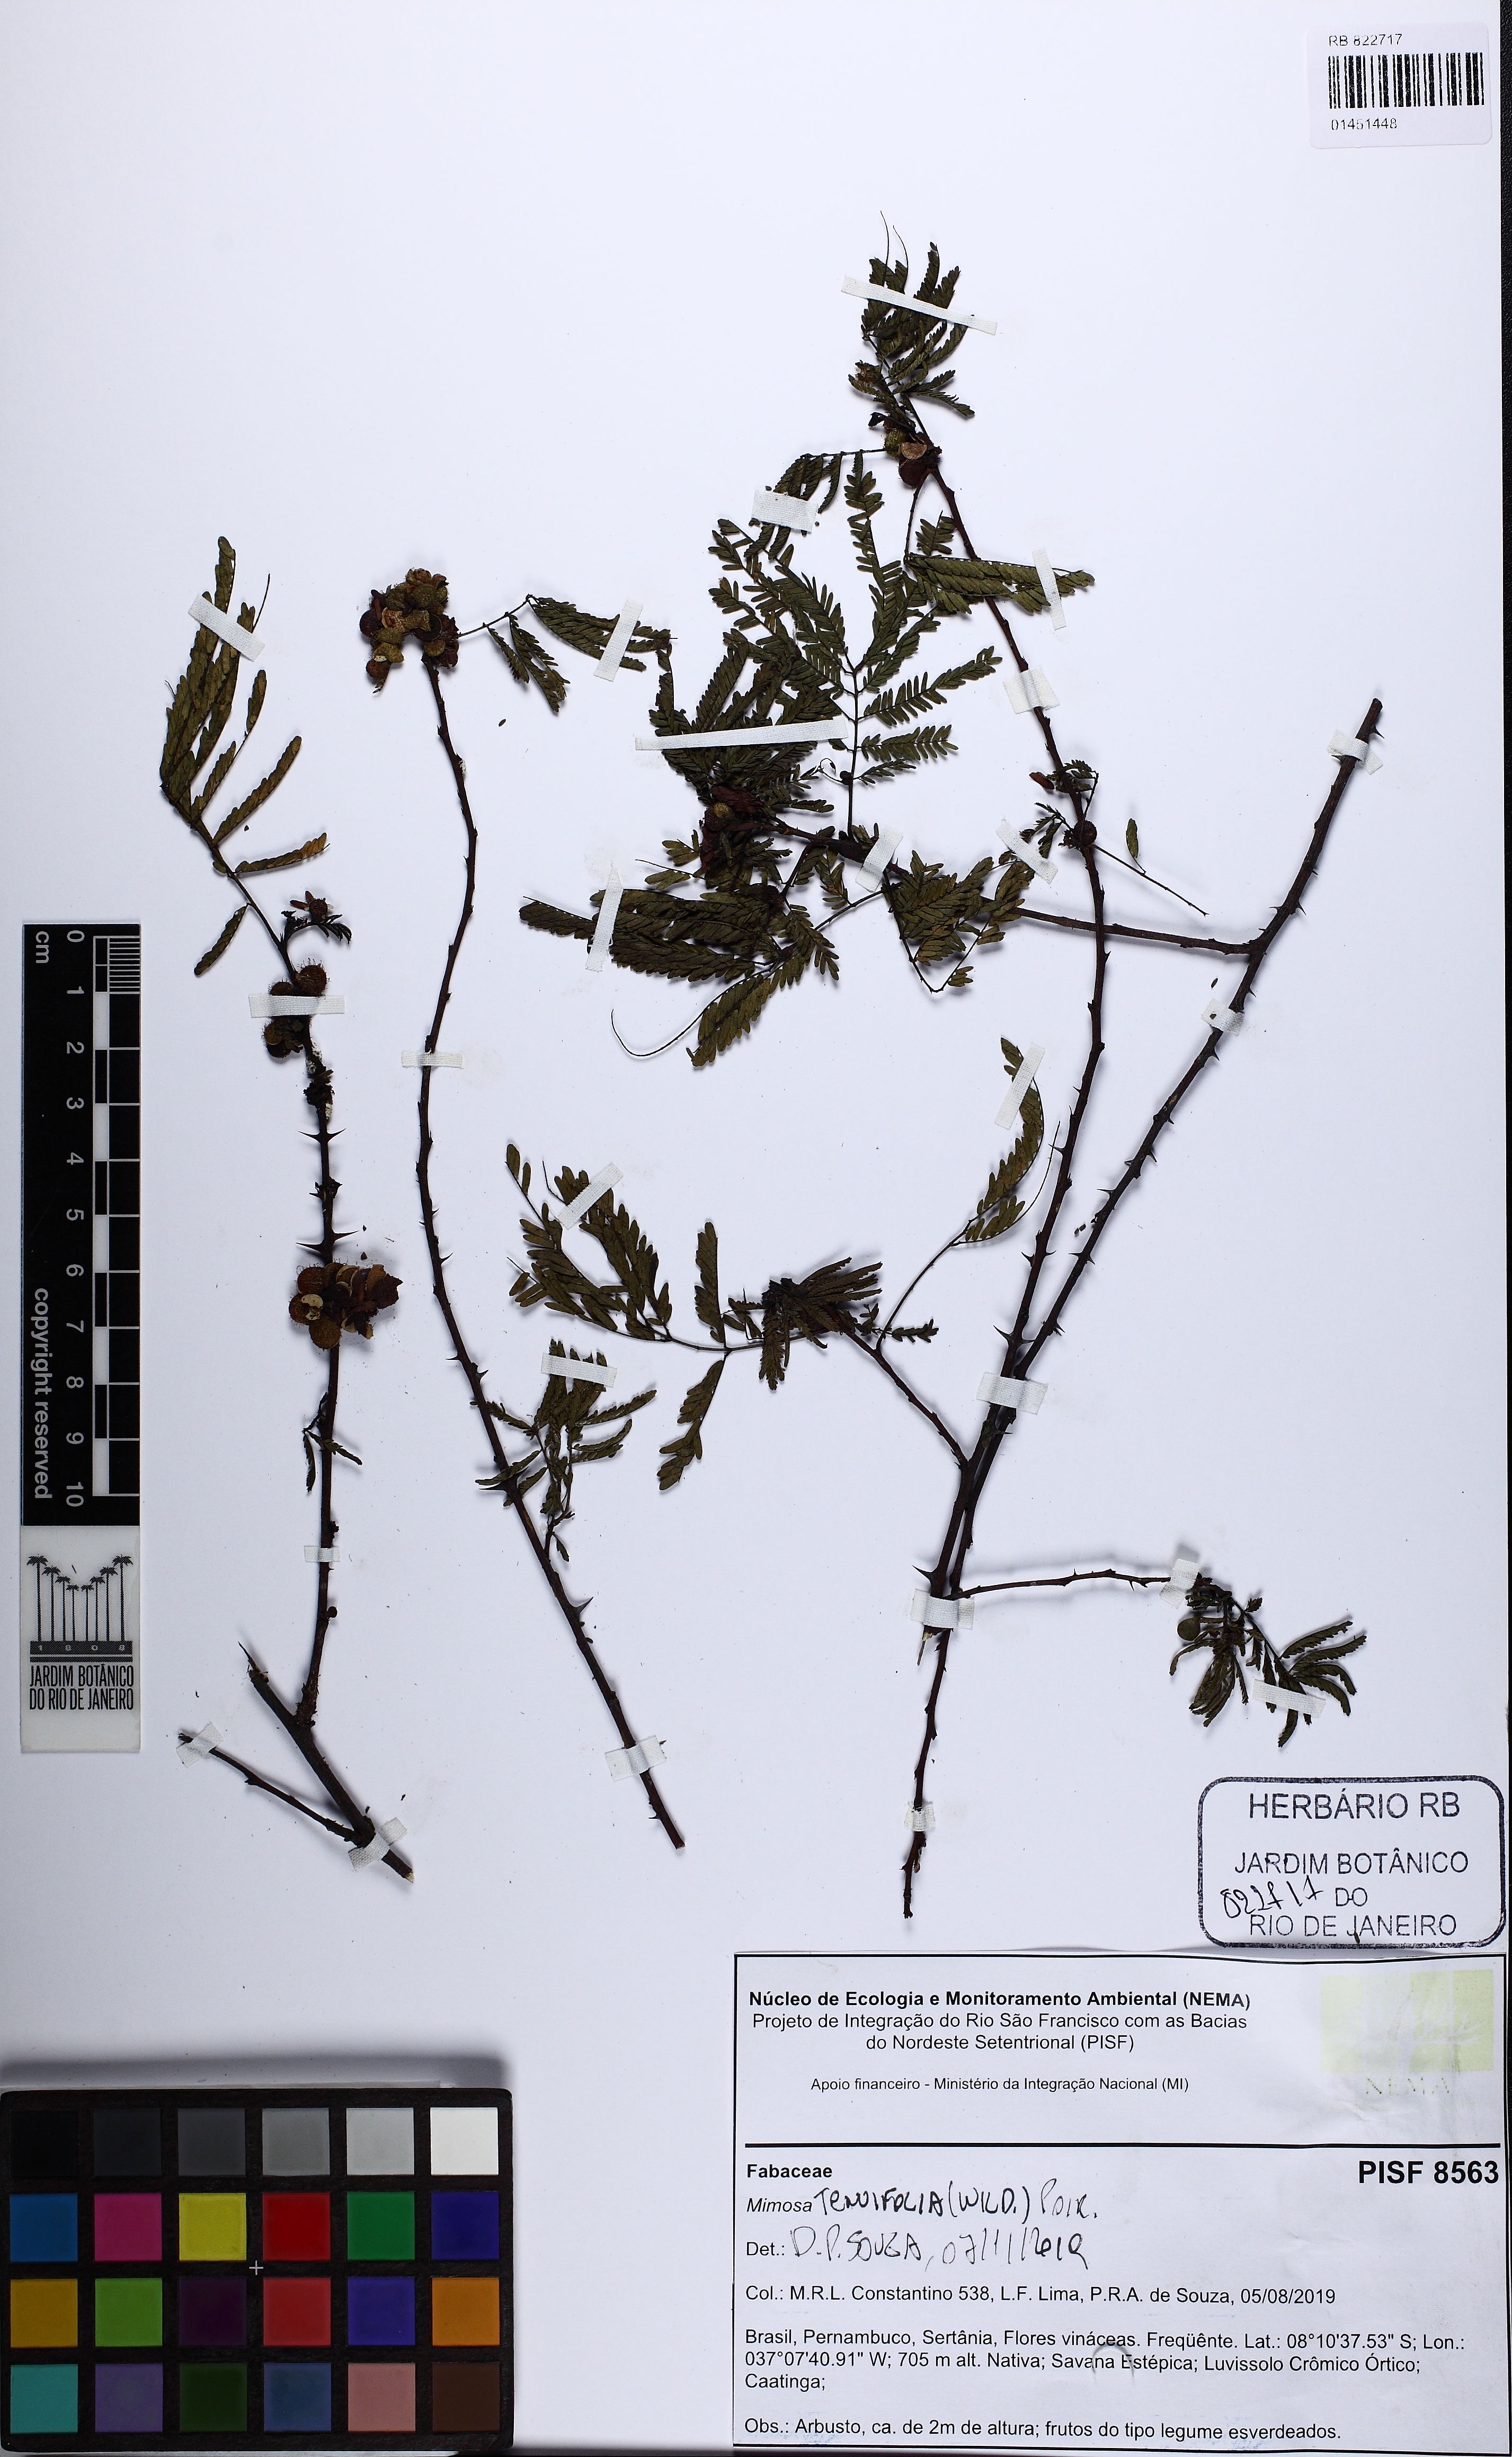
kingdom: Plantae
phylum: Tracheophyta
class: Magnoliopsida
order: Fabales
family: Fabaceae
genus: Mimosa
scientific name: Mimosa tenuiflora
